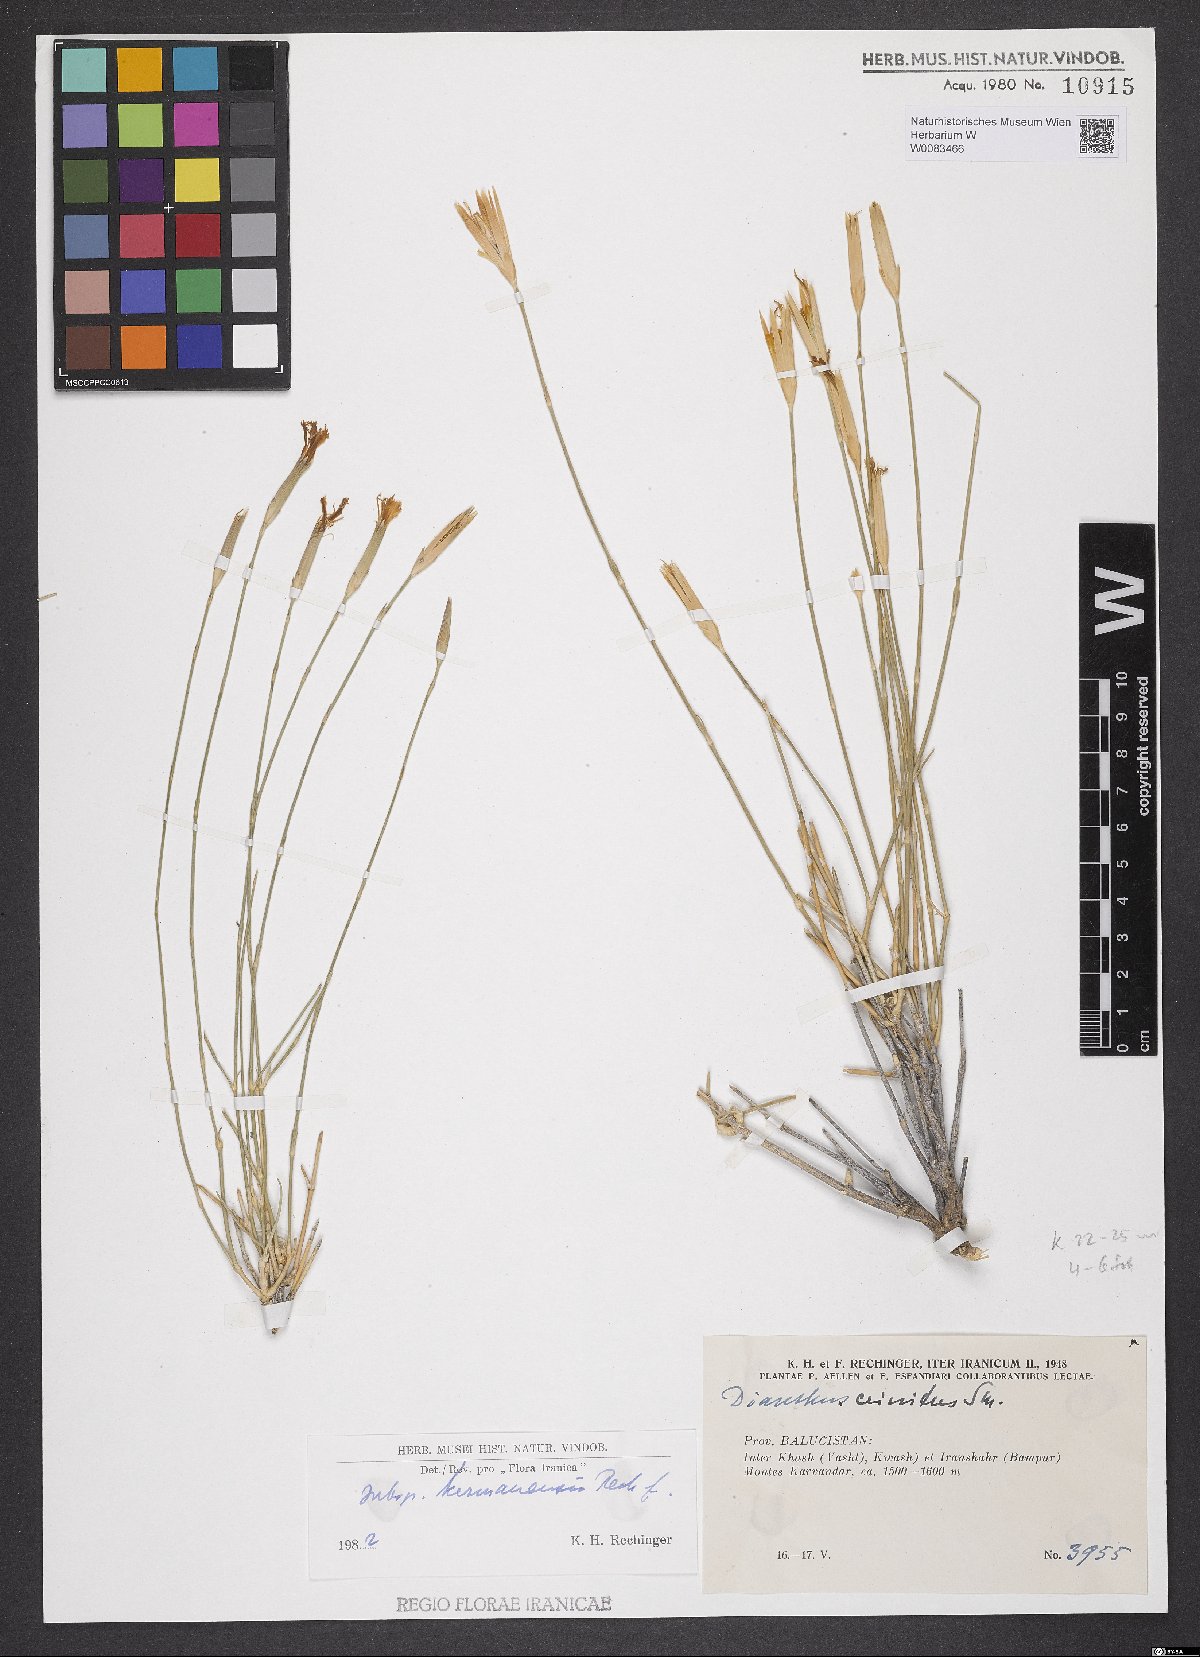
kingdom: Plantae
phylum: Tracheophyta
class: Magnoliopsida
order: Caryophyllales
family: Caryophyllaceae
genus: Dianthus
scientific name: Dianthus crinitus
